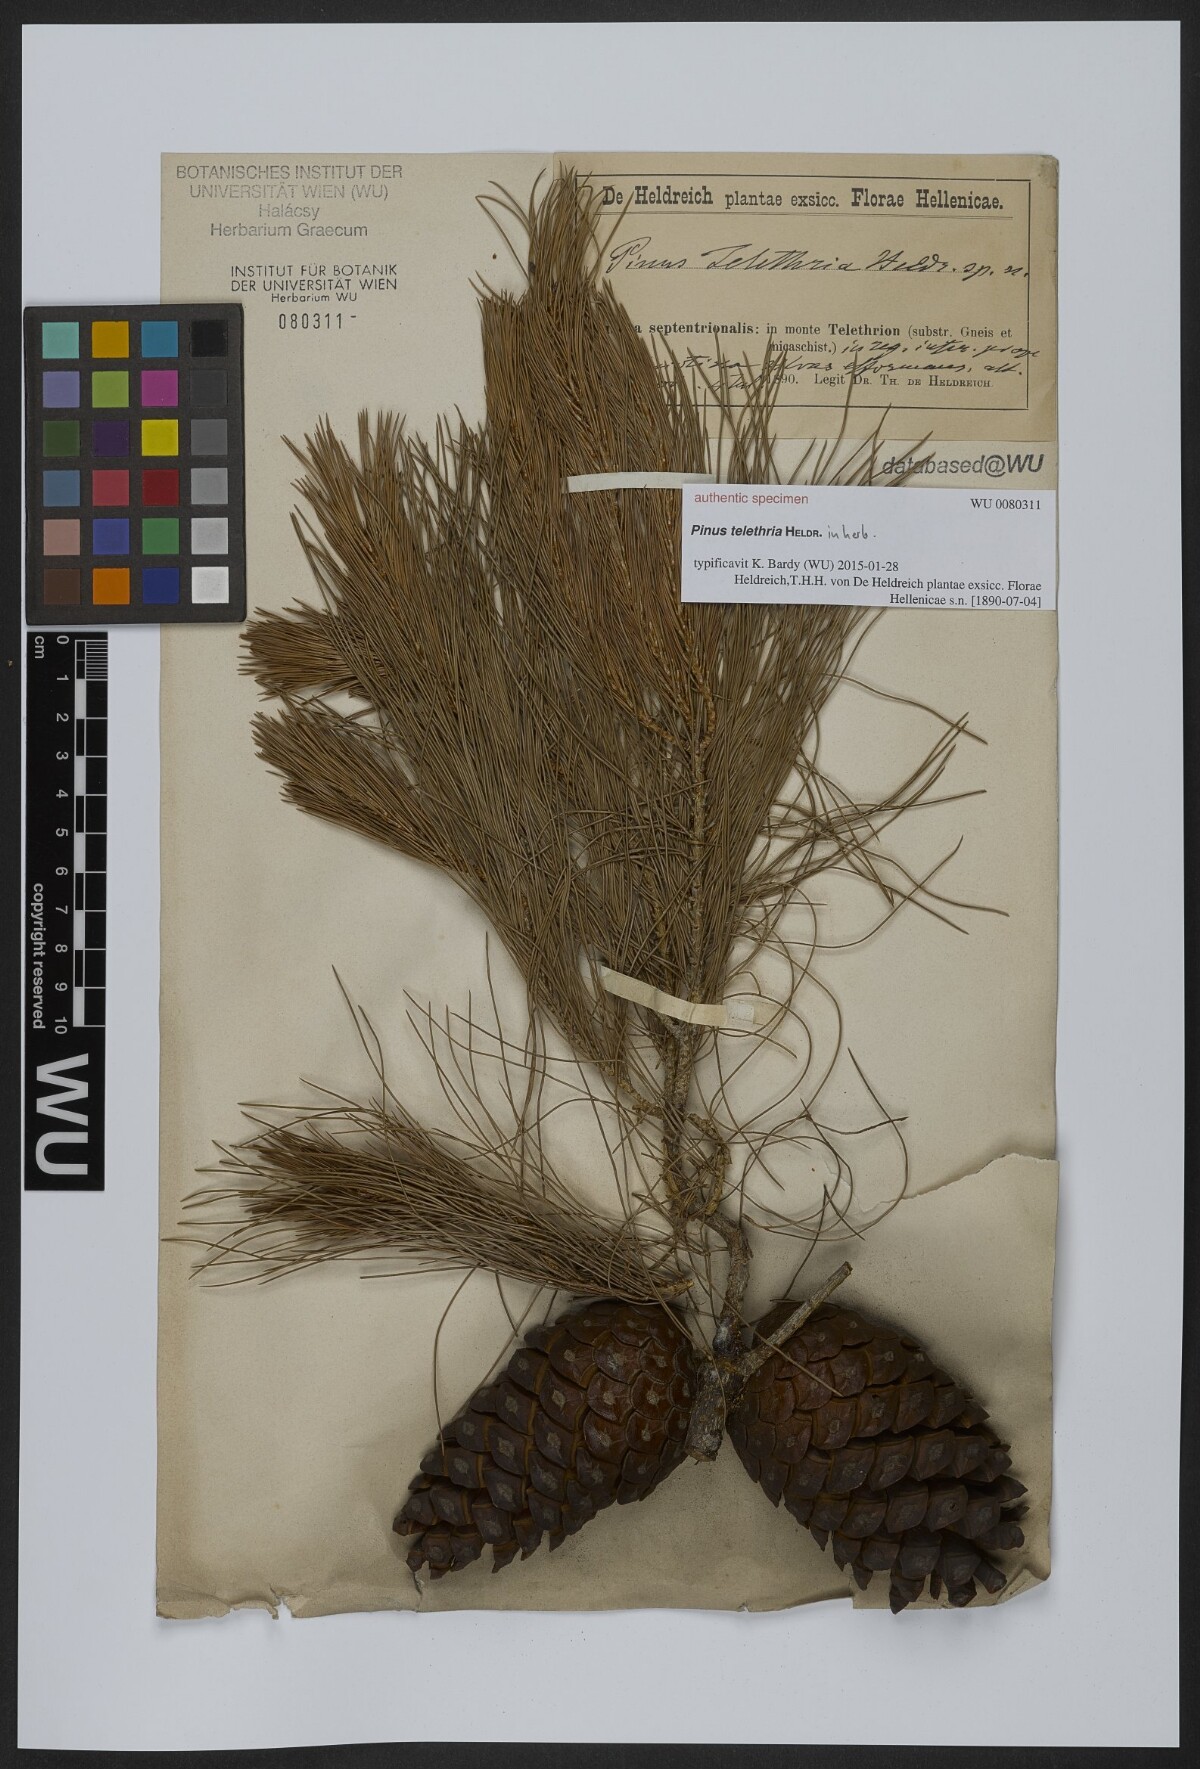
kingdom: Plantae
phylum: Tracheophyta
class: Pinopsida
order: Pinales
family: Pinaceae
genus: Pinus
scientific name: Pinus
